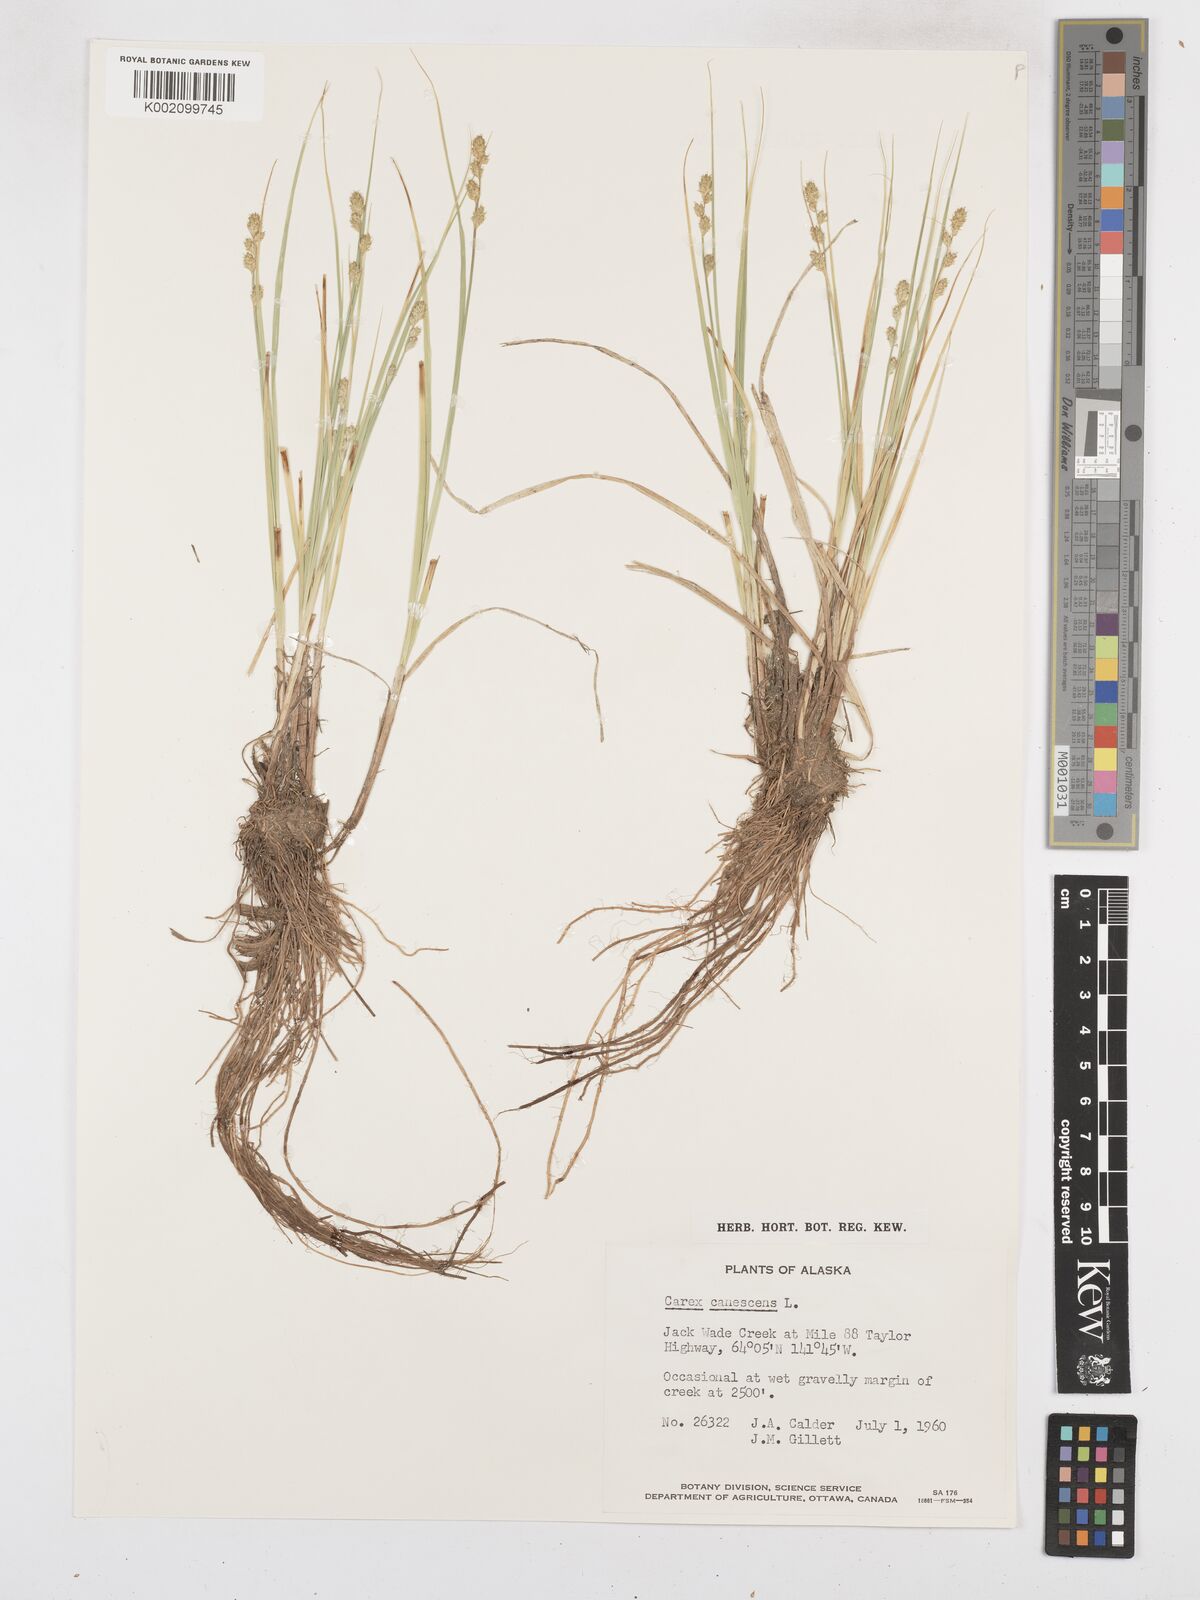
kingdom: Plantae
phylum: Tracheophyta
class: Liliopsida
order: Poales
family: Cyperaceae
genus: Carex
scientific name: Carex curta
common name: White sedge
